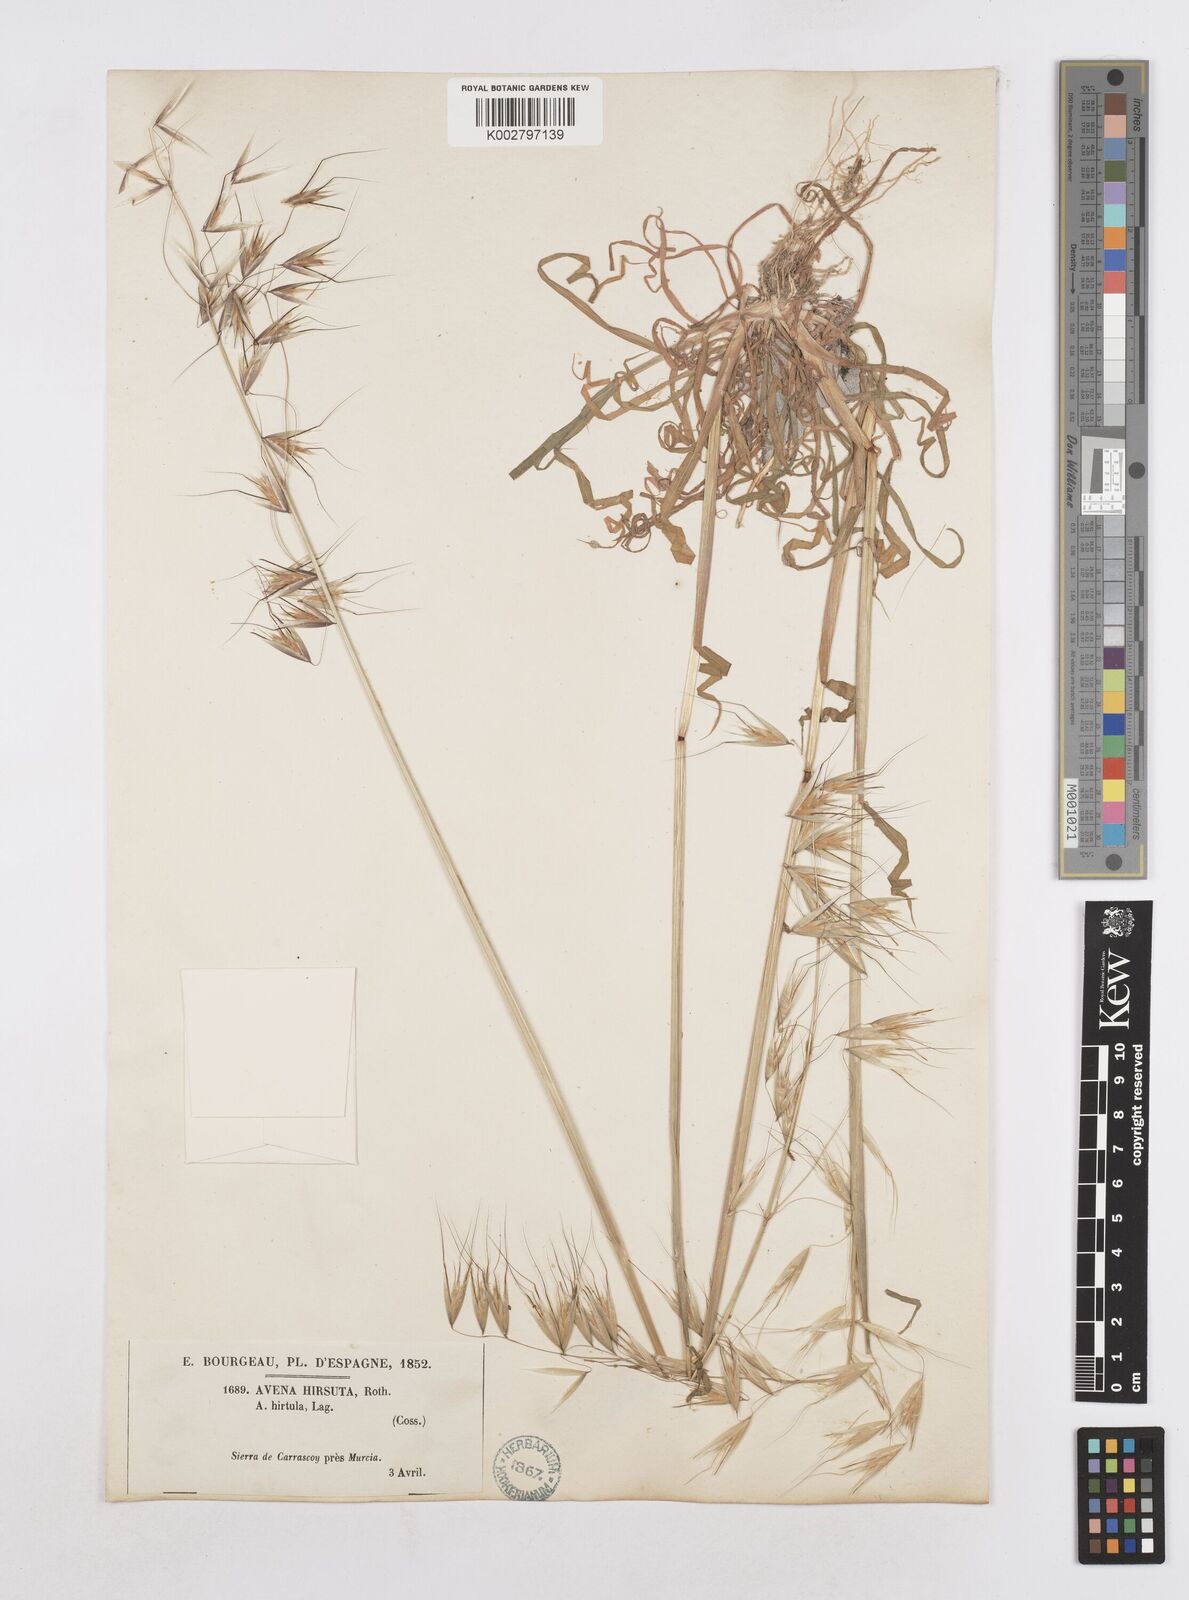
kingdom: Plantae
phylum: Tracheophyta
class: Liliopsida
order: Poales
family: Poaceae
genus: Avena
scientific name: Avena
